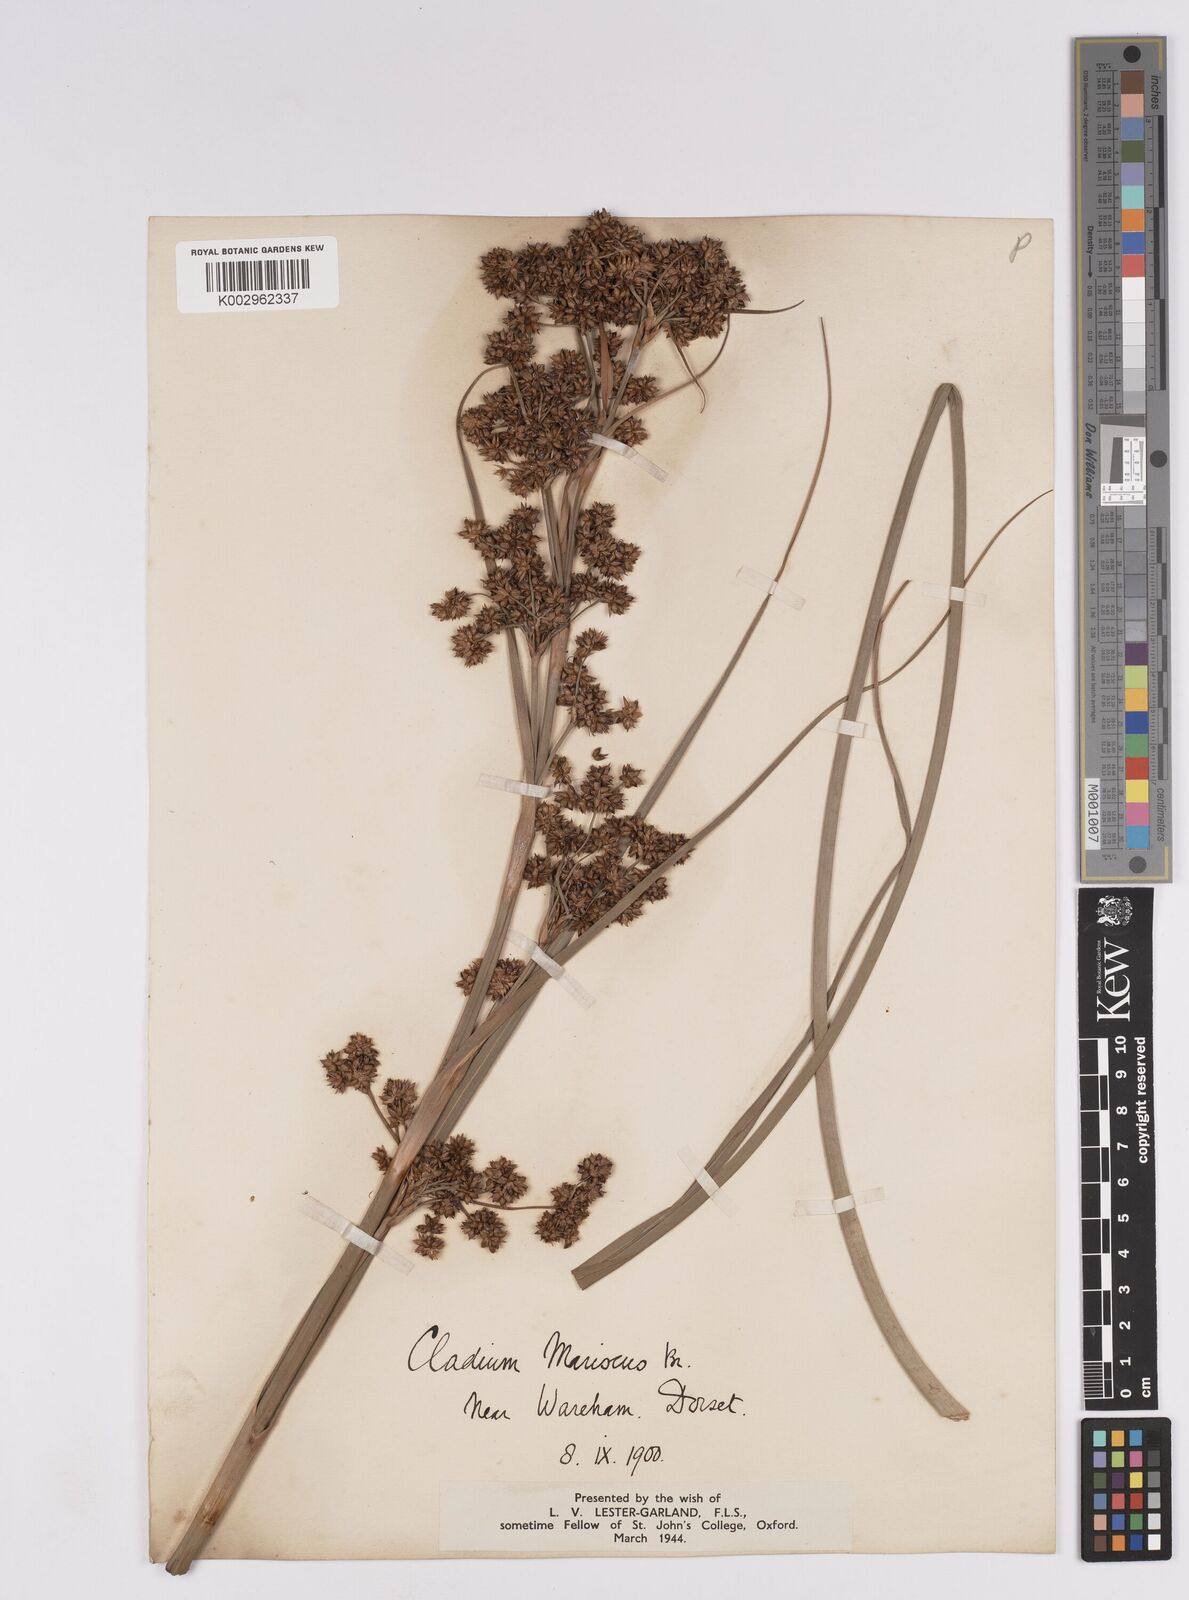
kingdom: Plantae
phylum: Tracheophyta
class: Liliopsida
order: Poales
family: Cyperaceae
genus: Cladium
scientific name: Cladium mariscus
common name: Great fen-sedge
